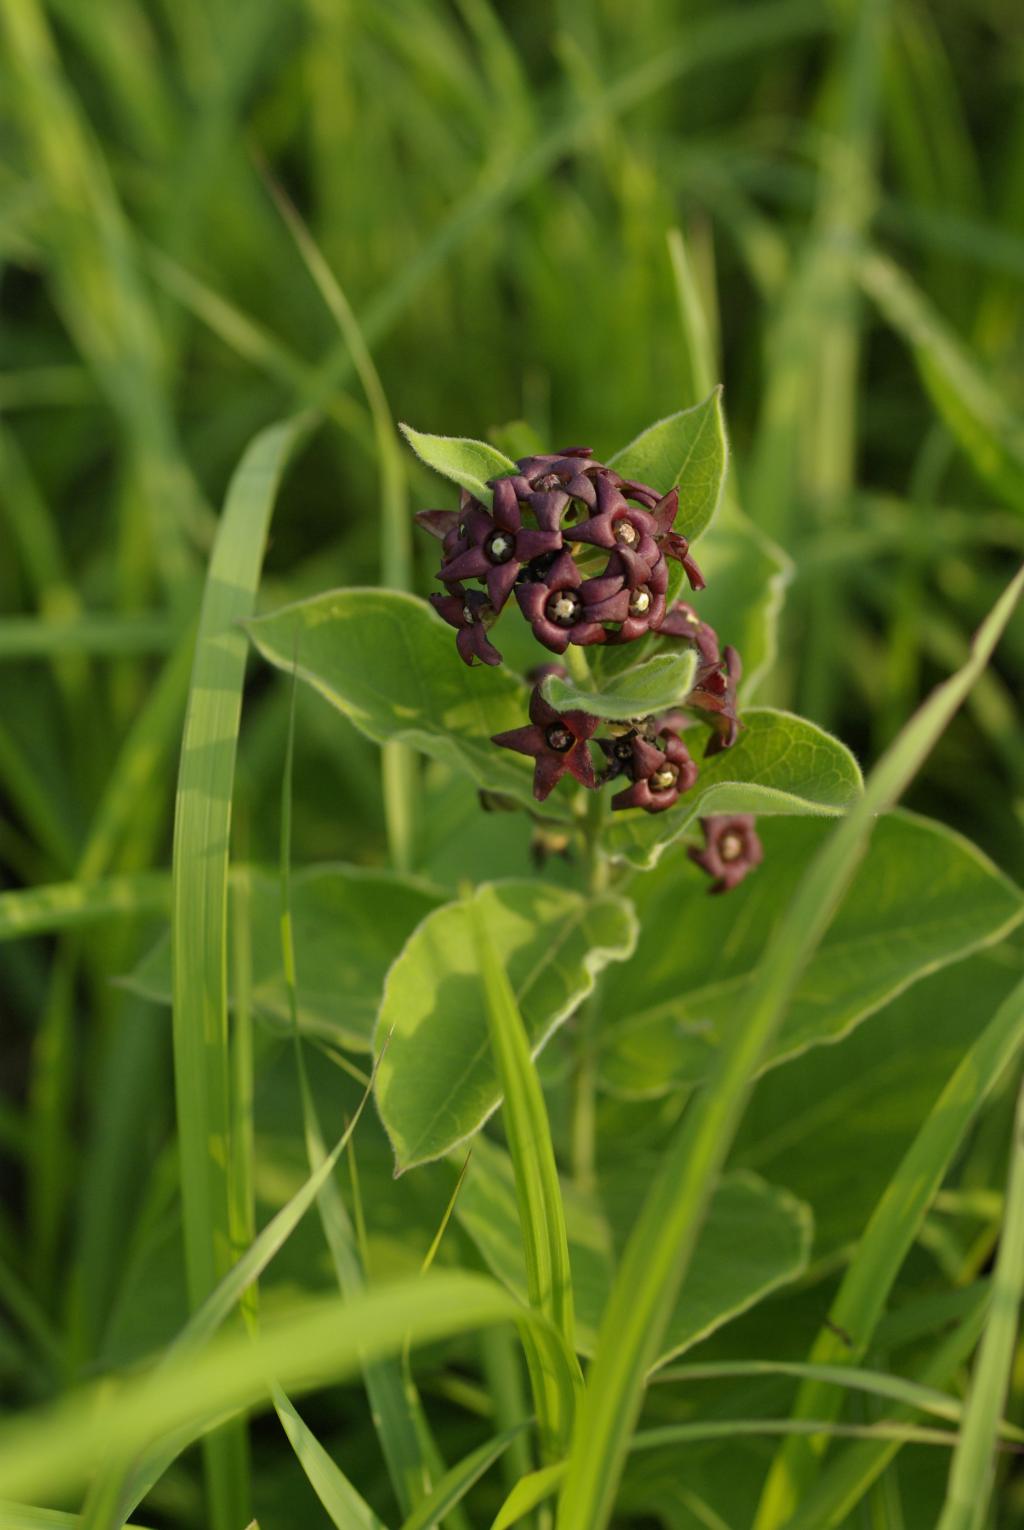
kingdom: Plantae
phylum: Tracheophyta
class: Magnoliopsida
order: Gentianales
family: Apocynaceae
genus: Vincetoxicum
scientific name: Vincetoxicum atratum
